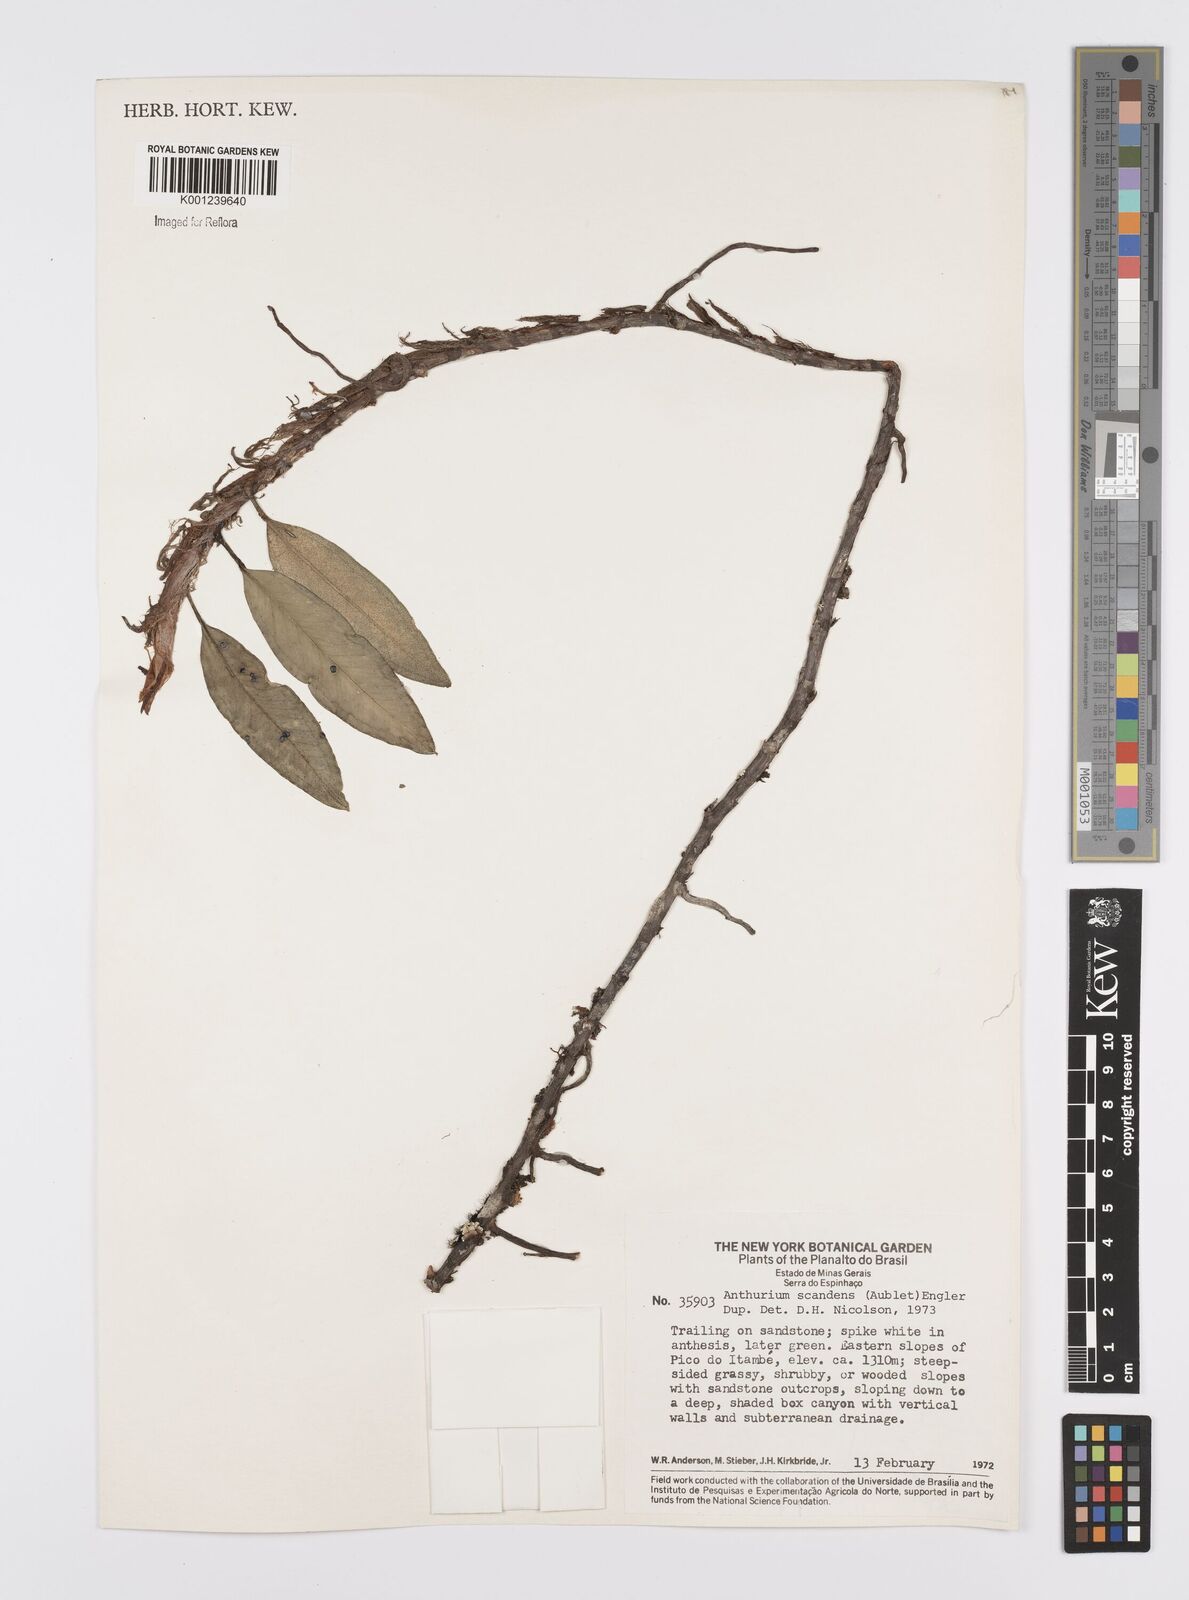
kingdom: Plantae
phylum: Tracheophyta
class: Liliopsida
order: Alismatales
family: Araceae
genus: Anthurium
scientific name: Anthurium scandens
